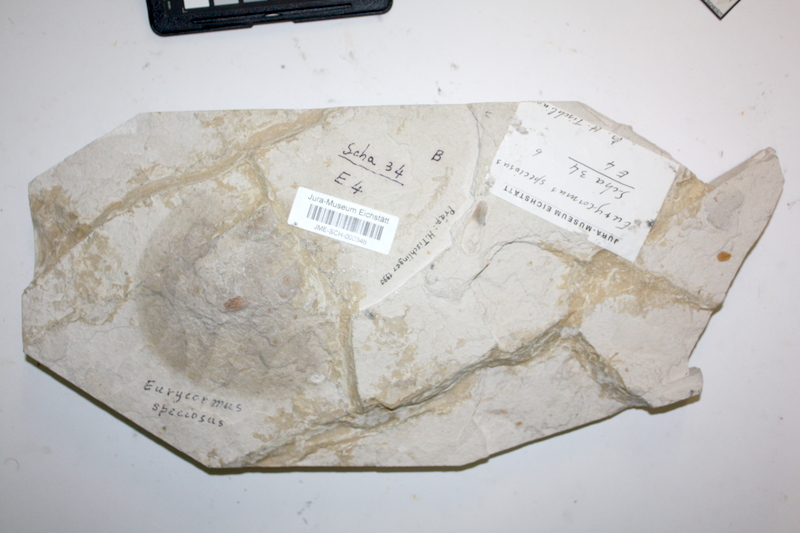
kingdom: Animalia
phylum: Chordata
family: Eurycormidae
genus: Eurycormus
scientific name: Eurycormus speciosus
